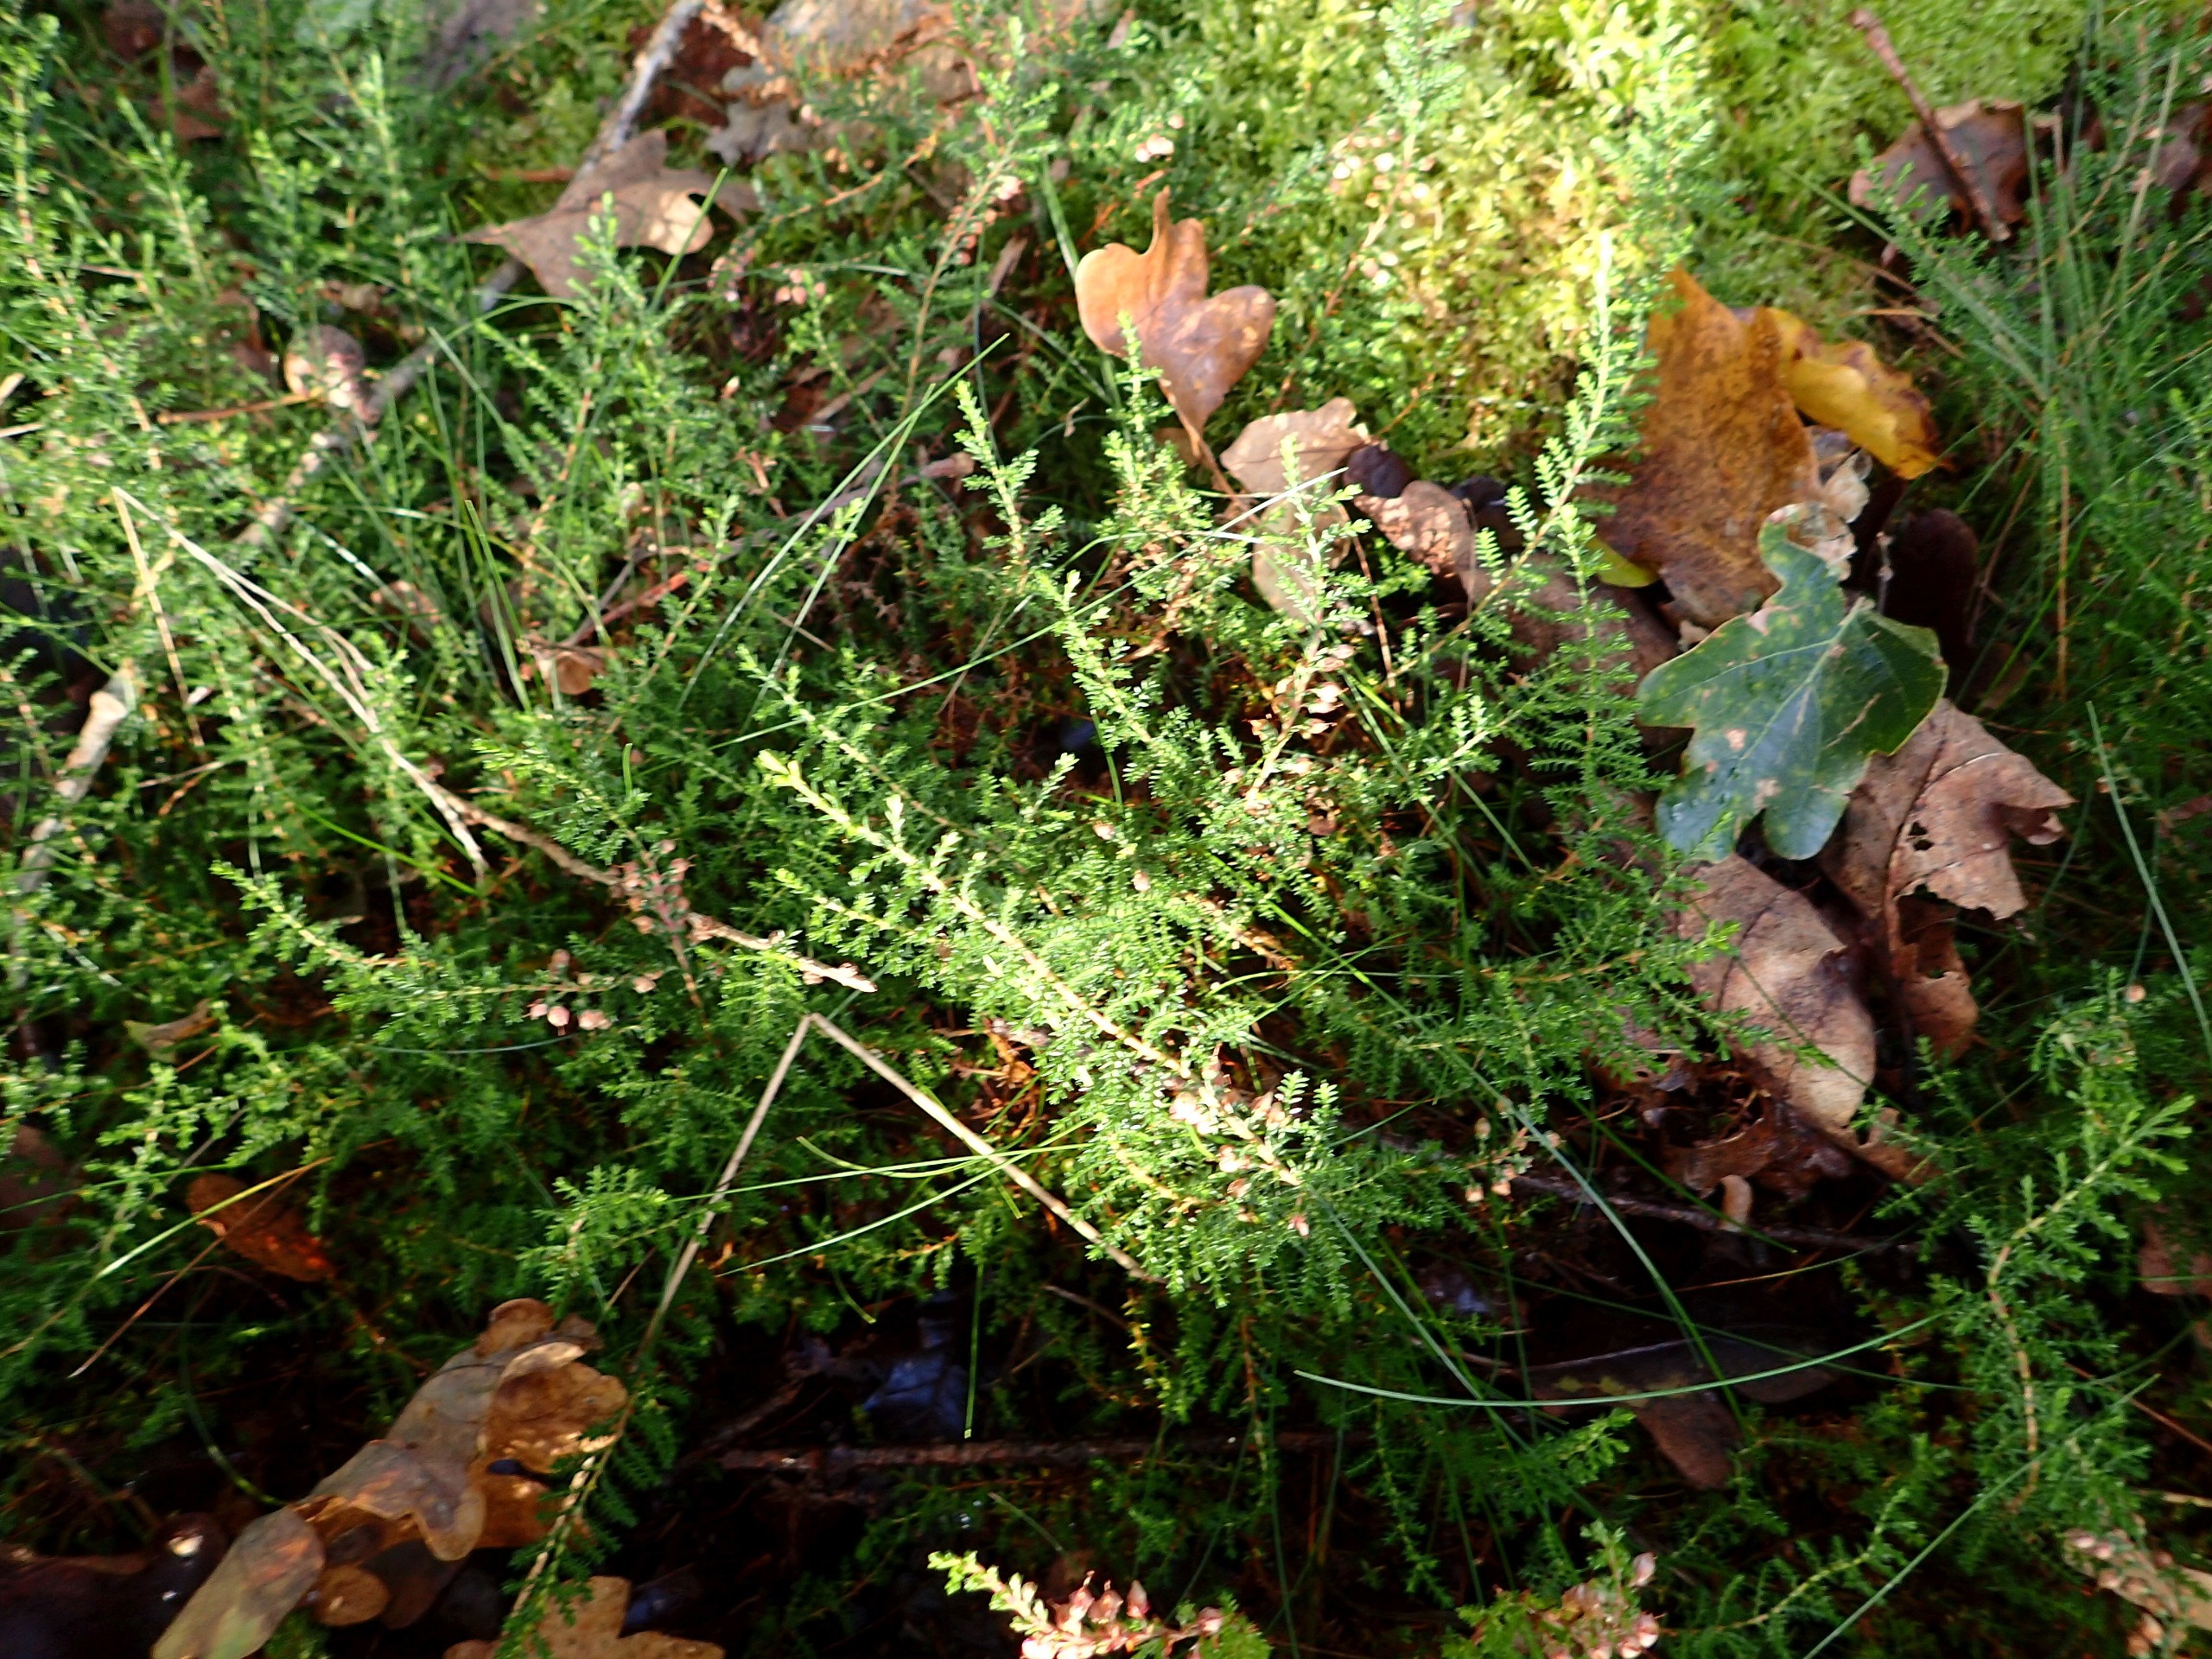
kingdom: Plantae
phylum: Tracheophyta
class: Magnoliopsida
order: Ericales
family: Ericaceae
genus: Calluna
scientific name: Calluna vulgaris
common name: Hedelyng
